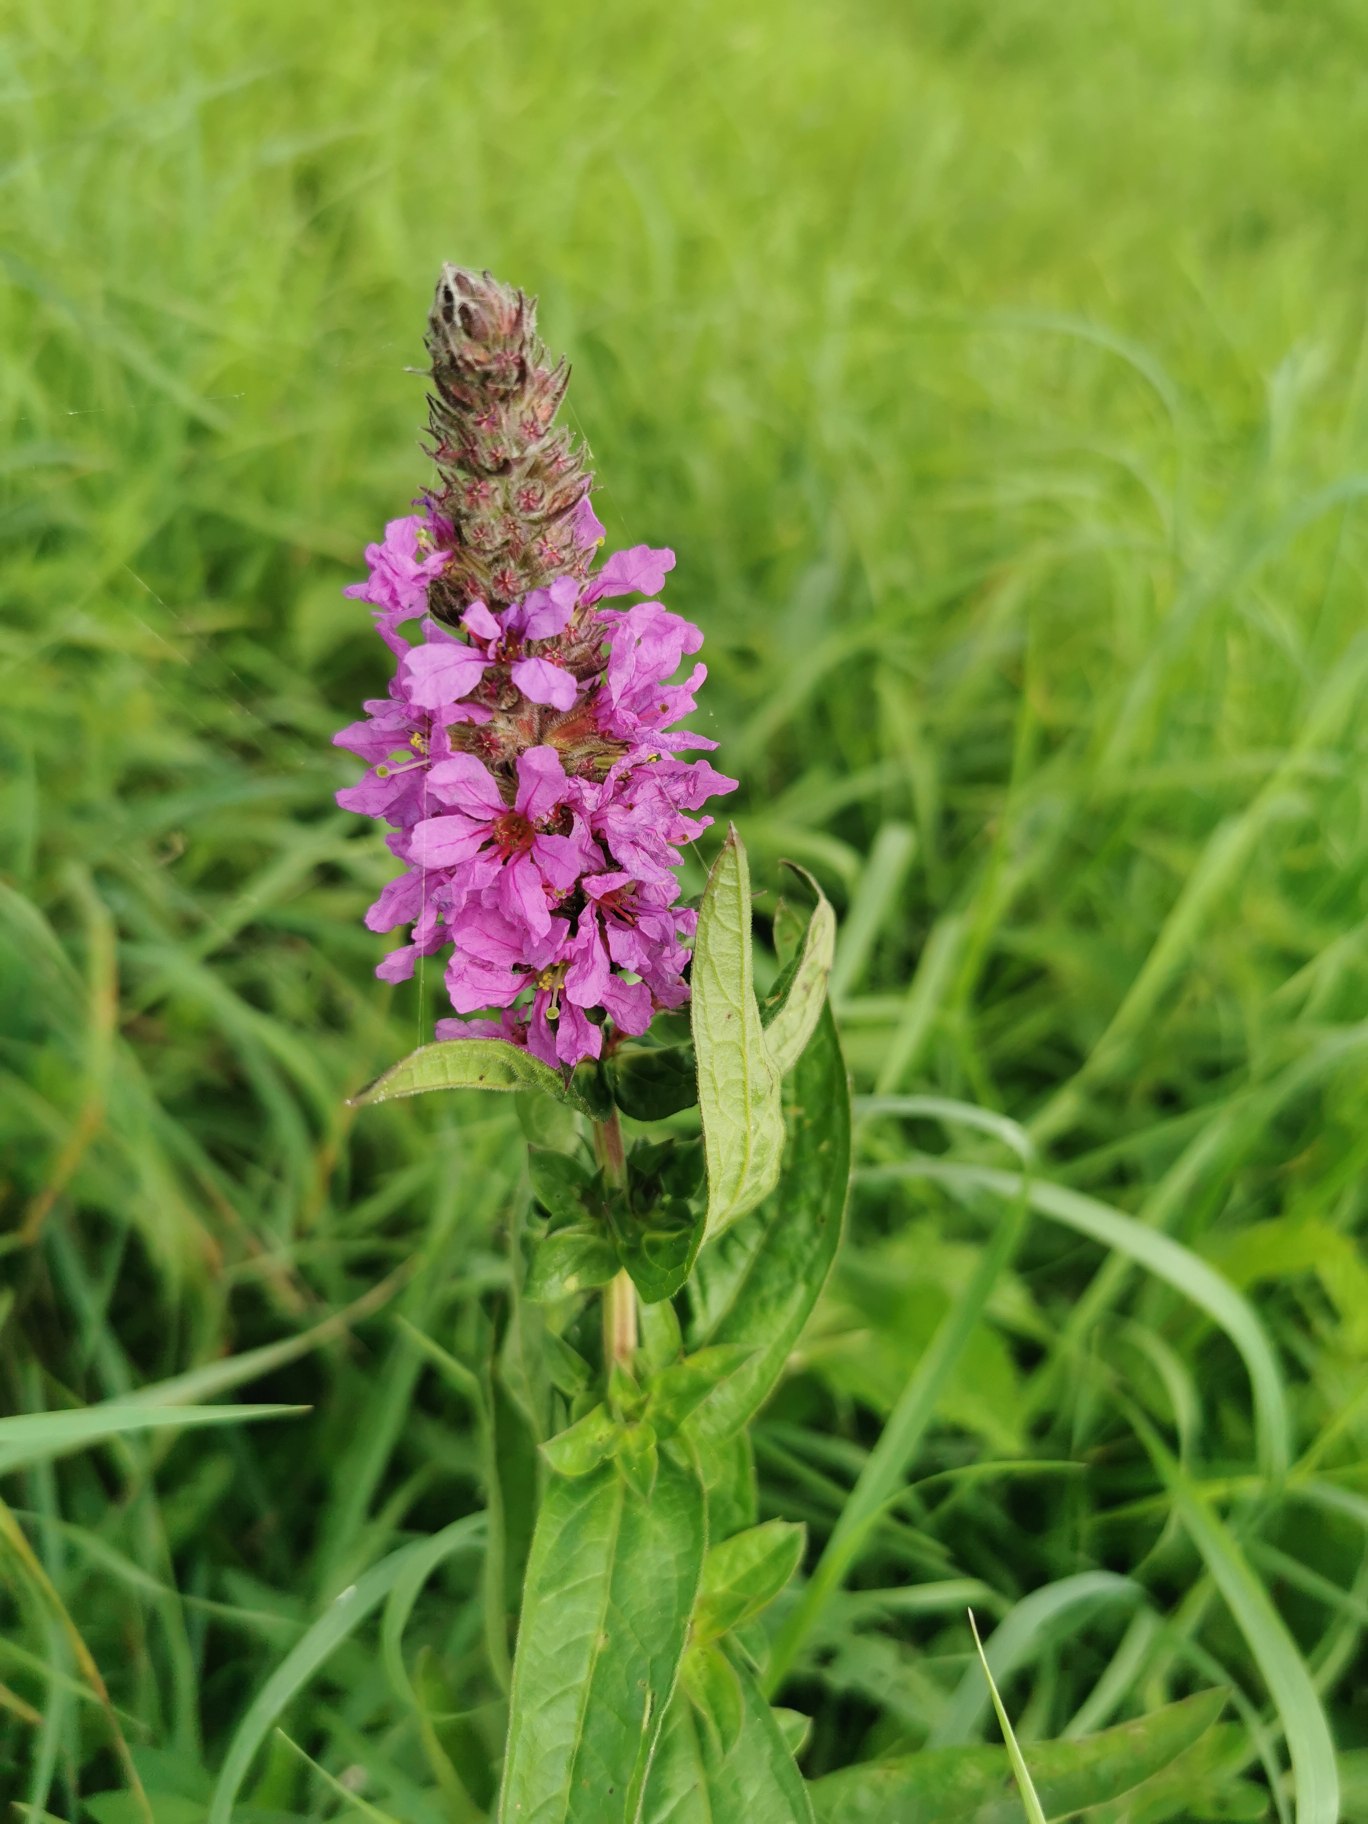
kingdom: Plantae
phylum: Tracheophyta
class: Magnoliopsida
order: Myrtales
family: Lythraceae
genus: Lythrum
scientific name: Lythrum salicaria
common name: Kattehale
